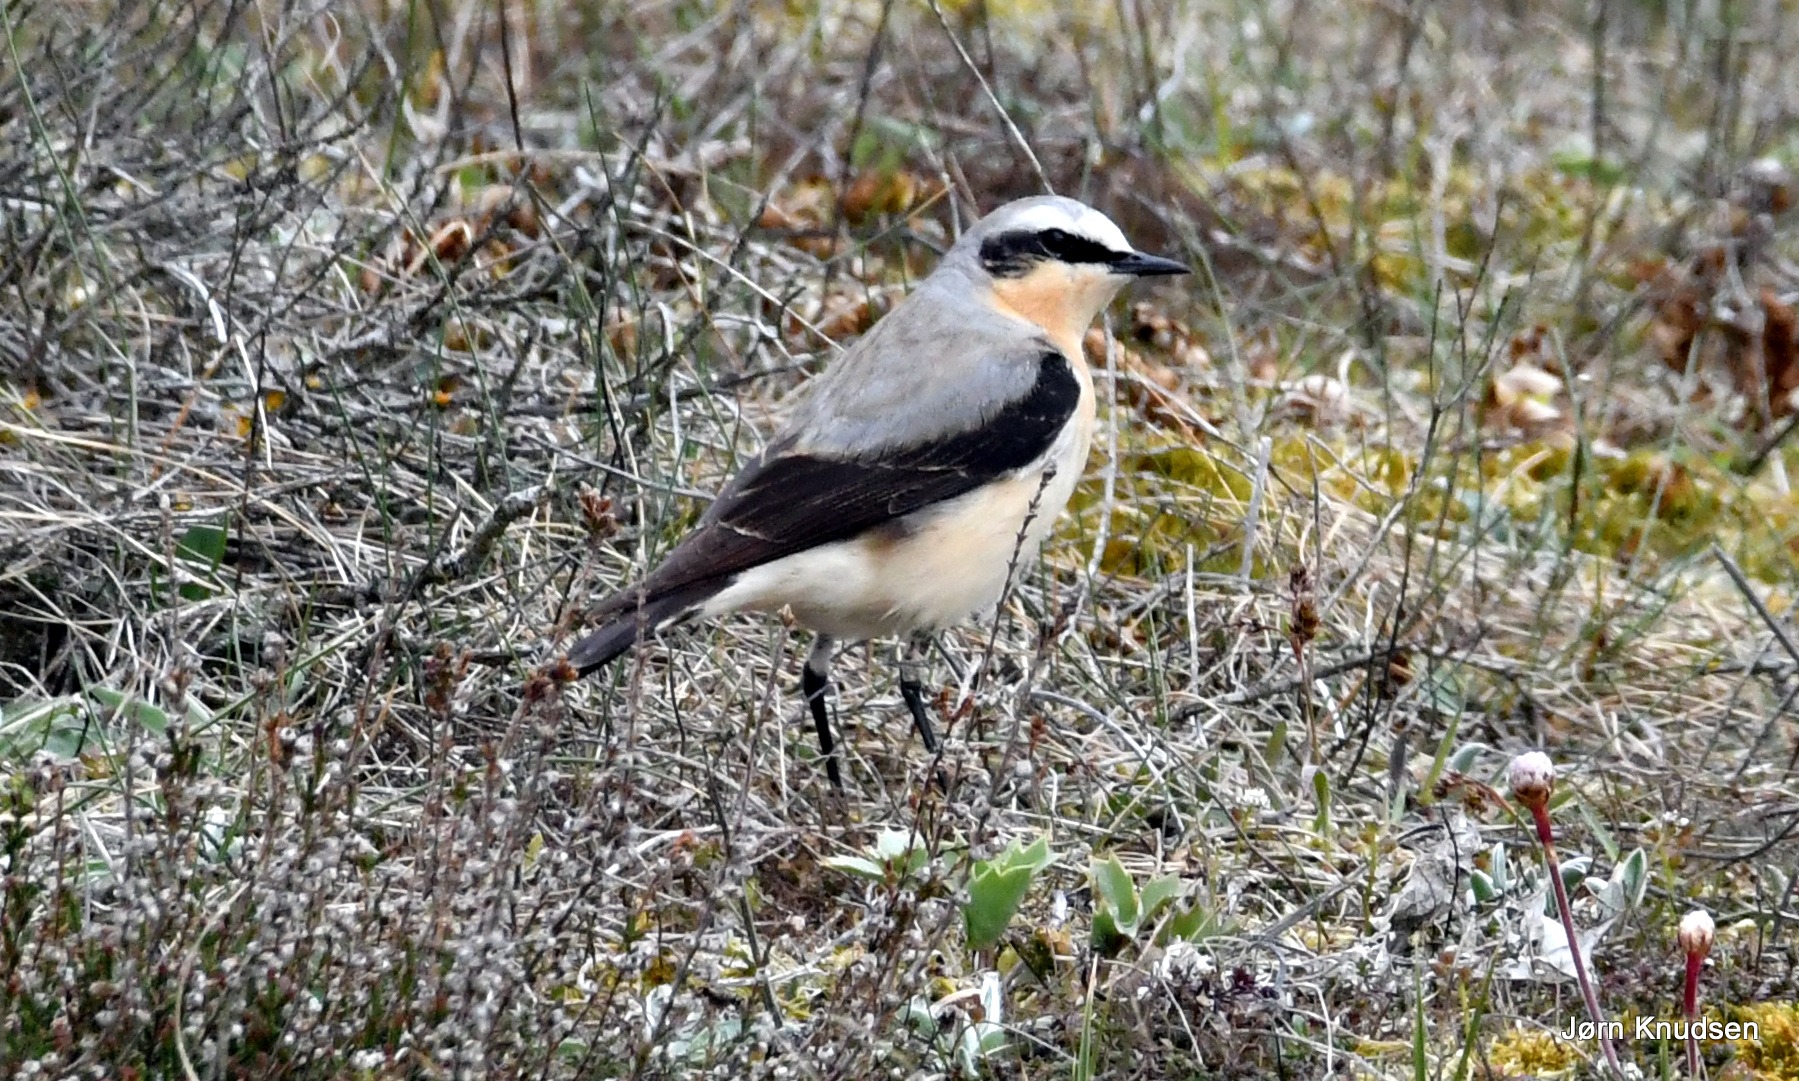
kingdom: Animalia
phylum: Chordata
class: Aves
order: Passeriformes
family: Muscicapidae
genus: Oenanthe
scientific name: Oenanthe oenanthe
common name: Stenpikker
